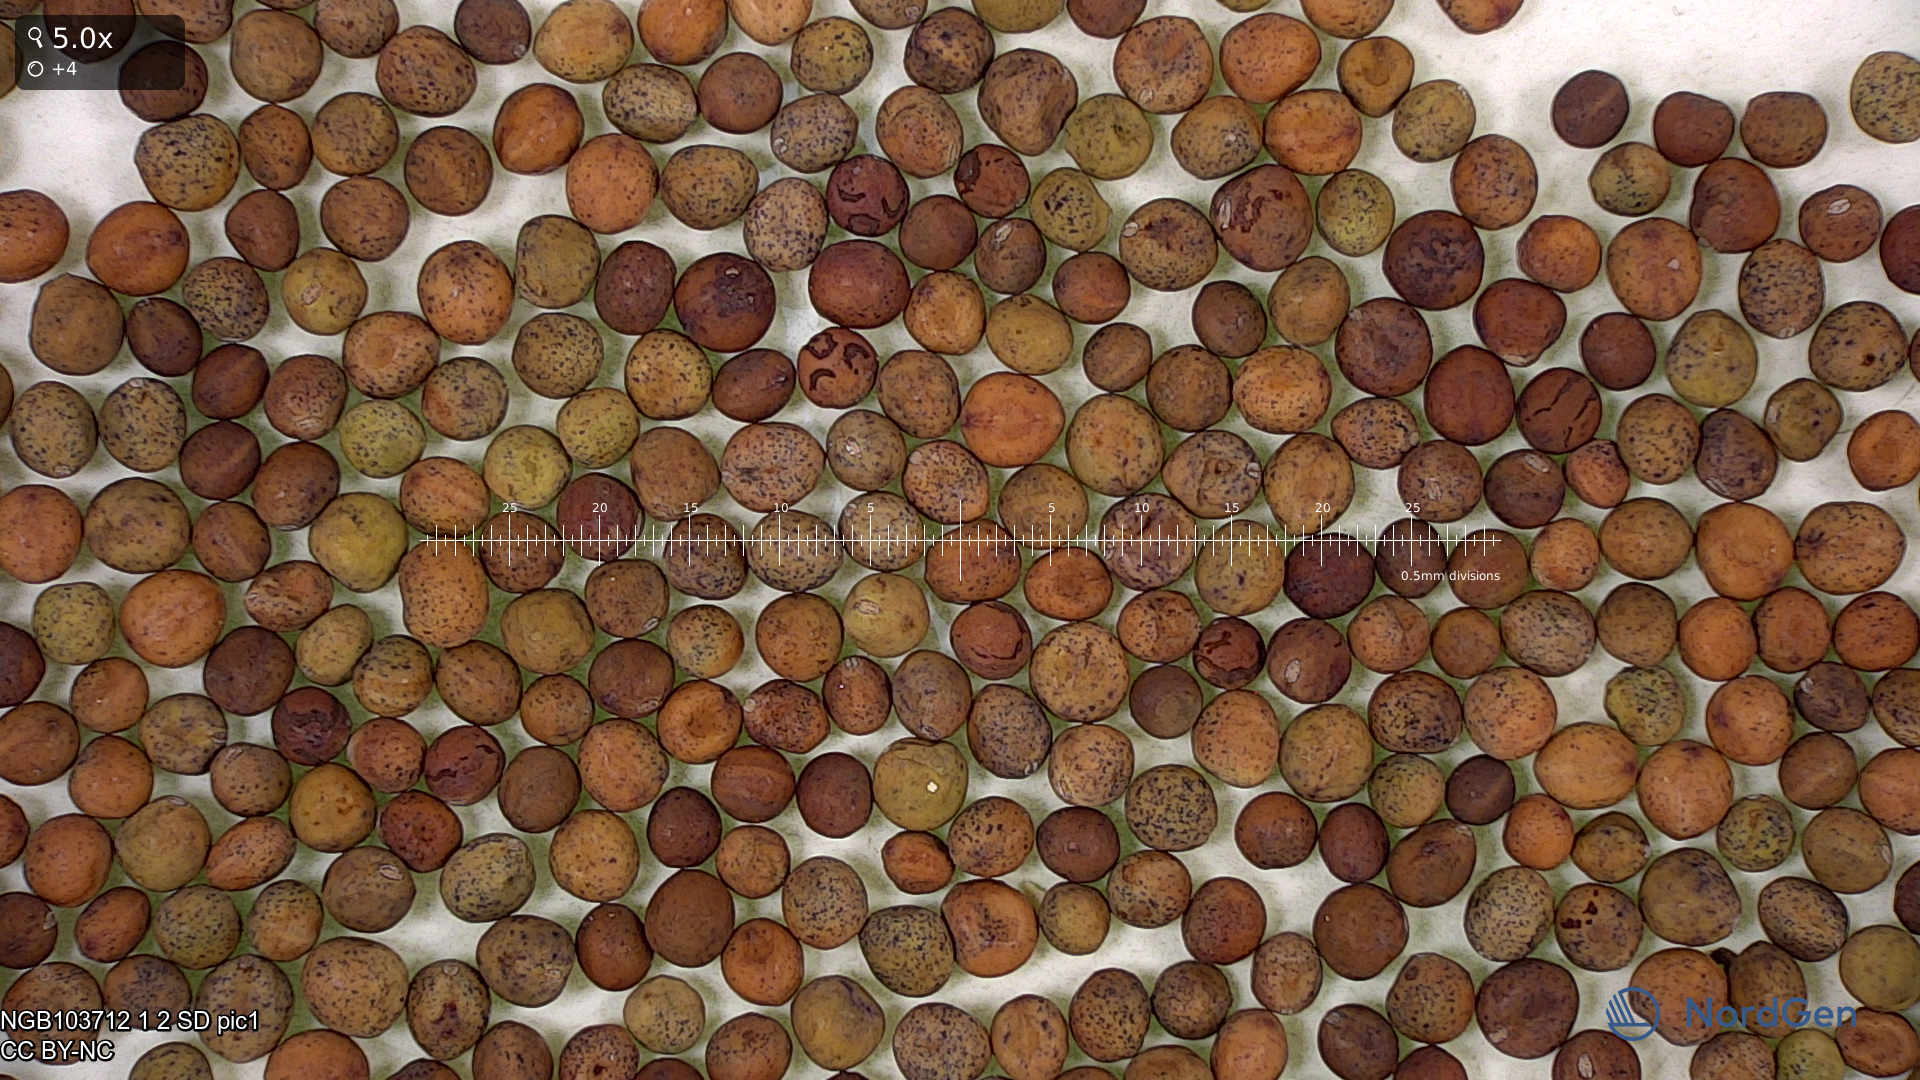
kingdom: Plantae
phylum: Tracheophyta
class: Magnoliopsida
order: Fabales
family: Fabaceae
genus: Lathyrus
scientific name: Lathyrus oleraceus
